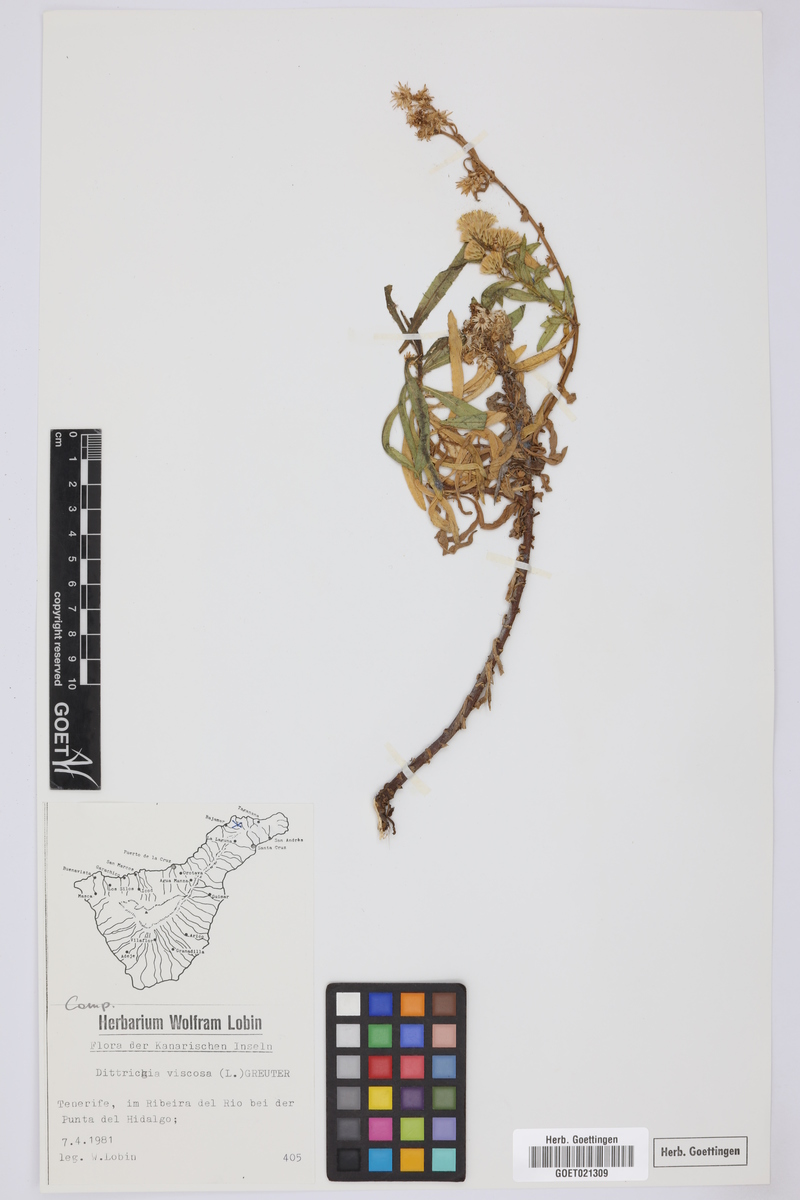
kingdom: Plantae
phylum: Tracheophyta
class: Magnoliopsida
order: Asterales
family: Asteraceae
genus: Dittrichia
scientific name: Dittrichia viscosa
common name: Woody fleabane
